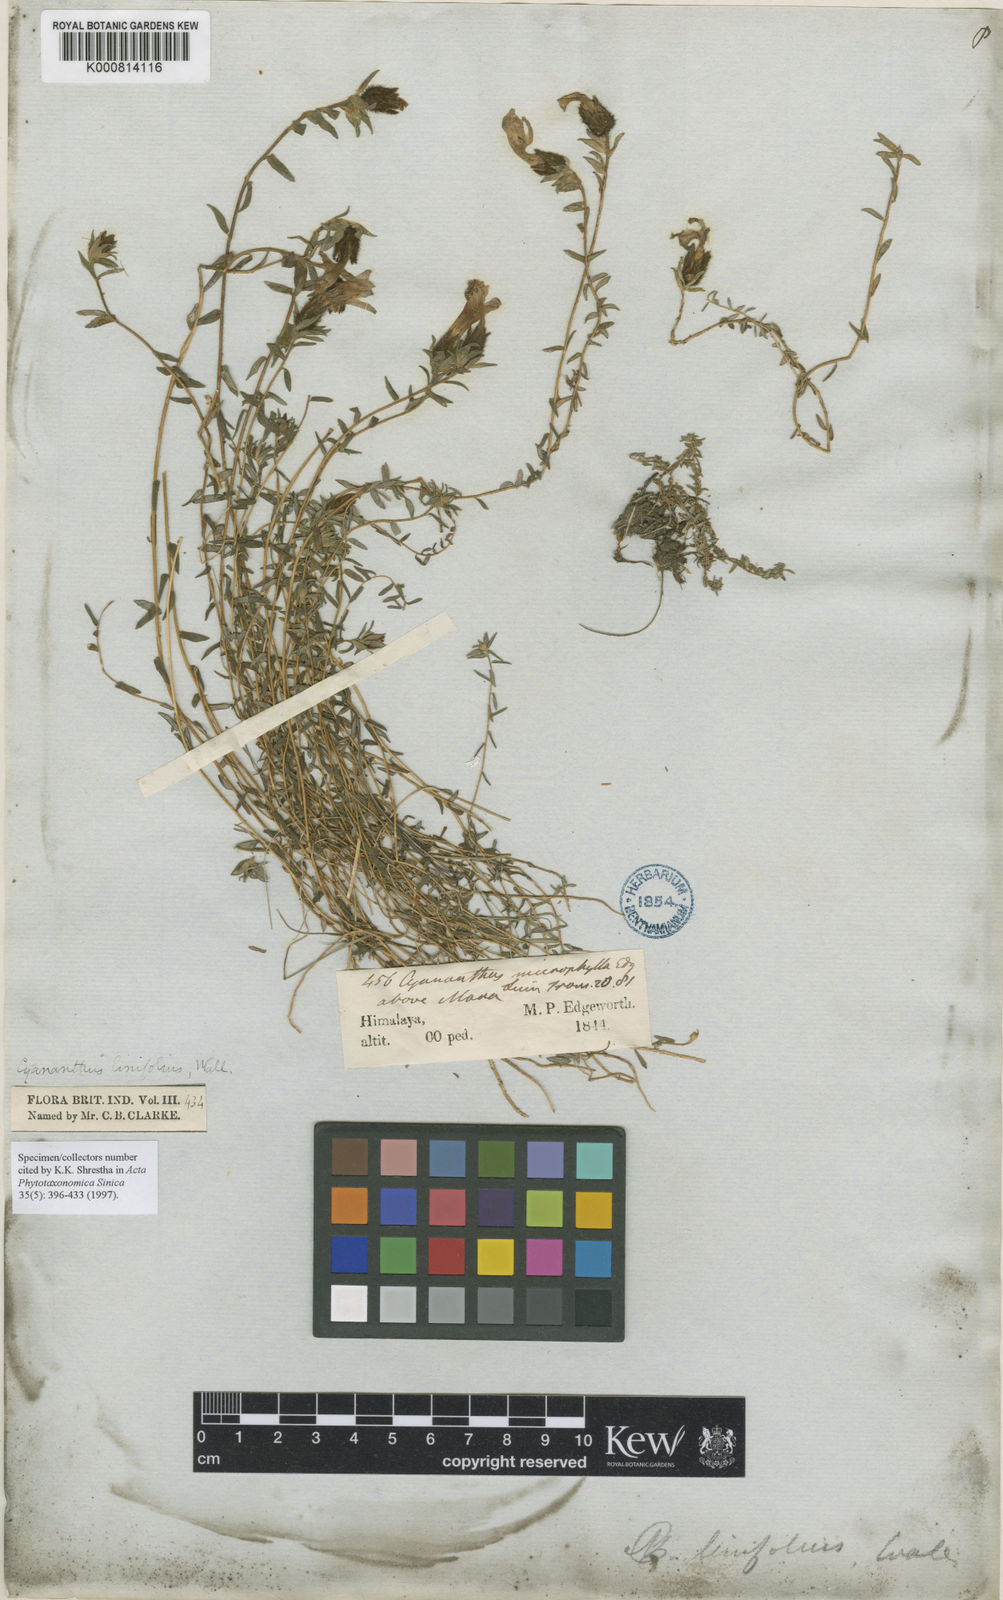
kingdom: Plantae
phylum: Tracheophyta
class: Magnoliopsida
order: Asterales
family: Campanulaceae
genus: Cyananthus
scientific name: Cyananthus microphyllus
